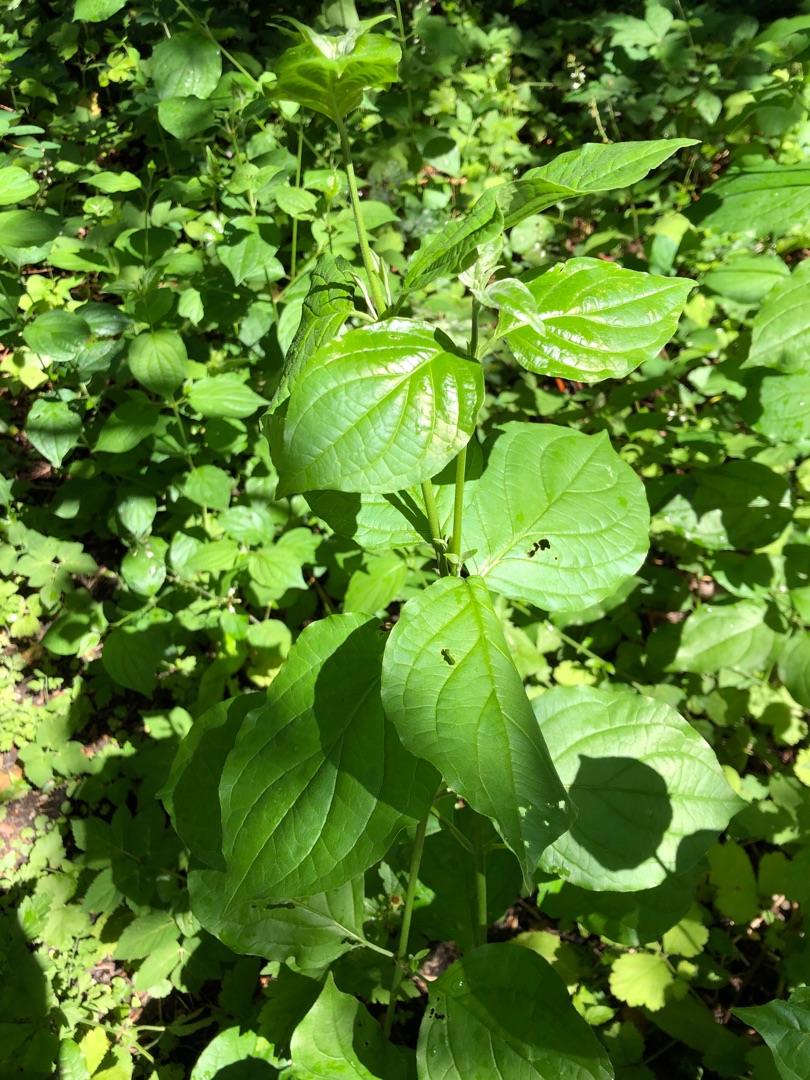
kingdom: Plantae
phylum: Tracheophyta
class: Magnoliopsida
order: Cornales
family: Cornaceae
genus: Cornus
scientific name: Cornus sanguinea
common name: Rød kornel
